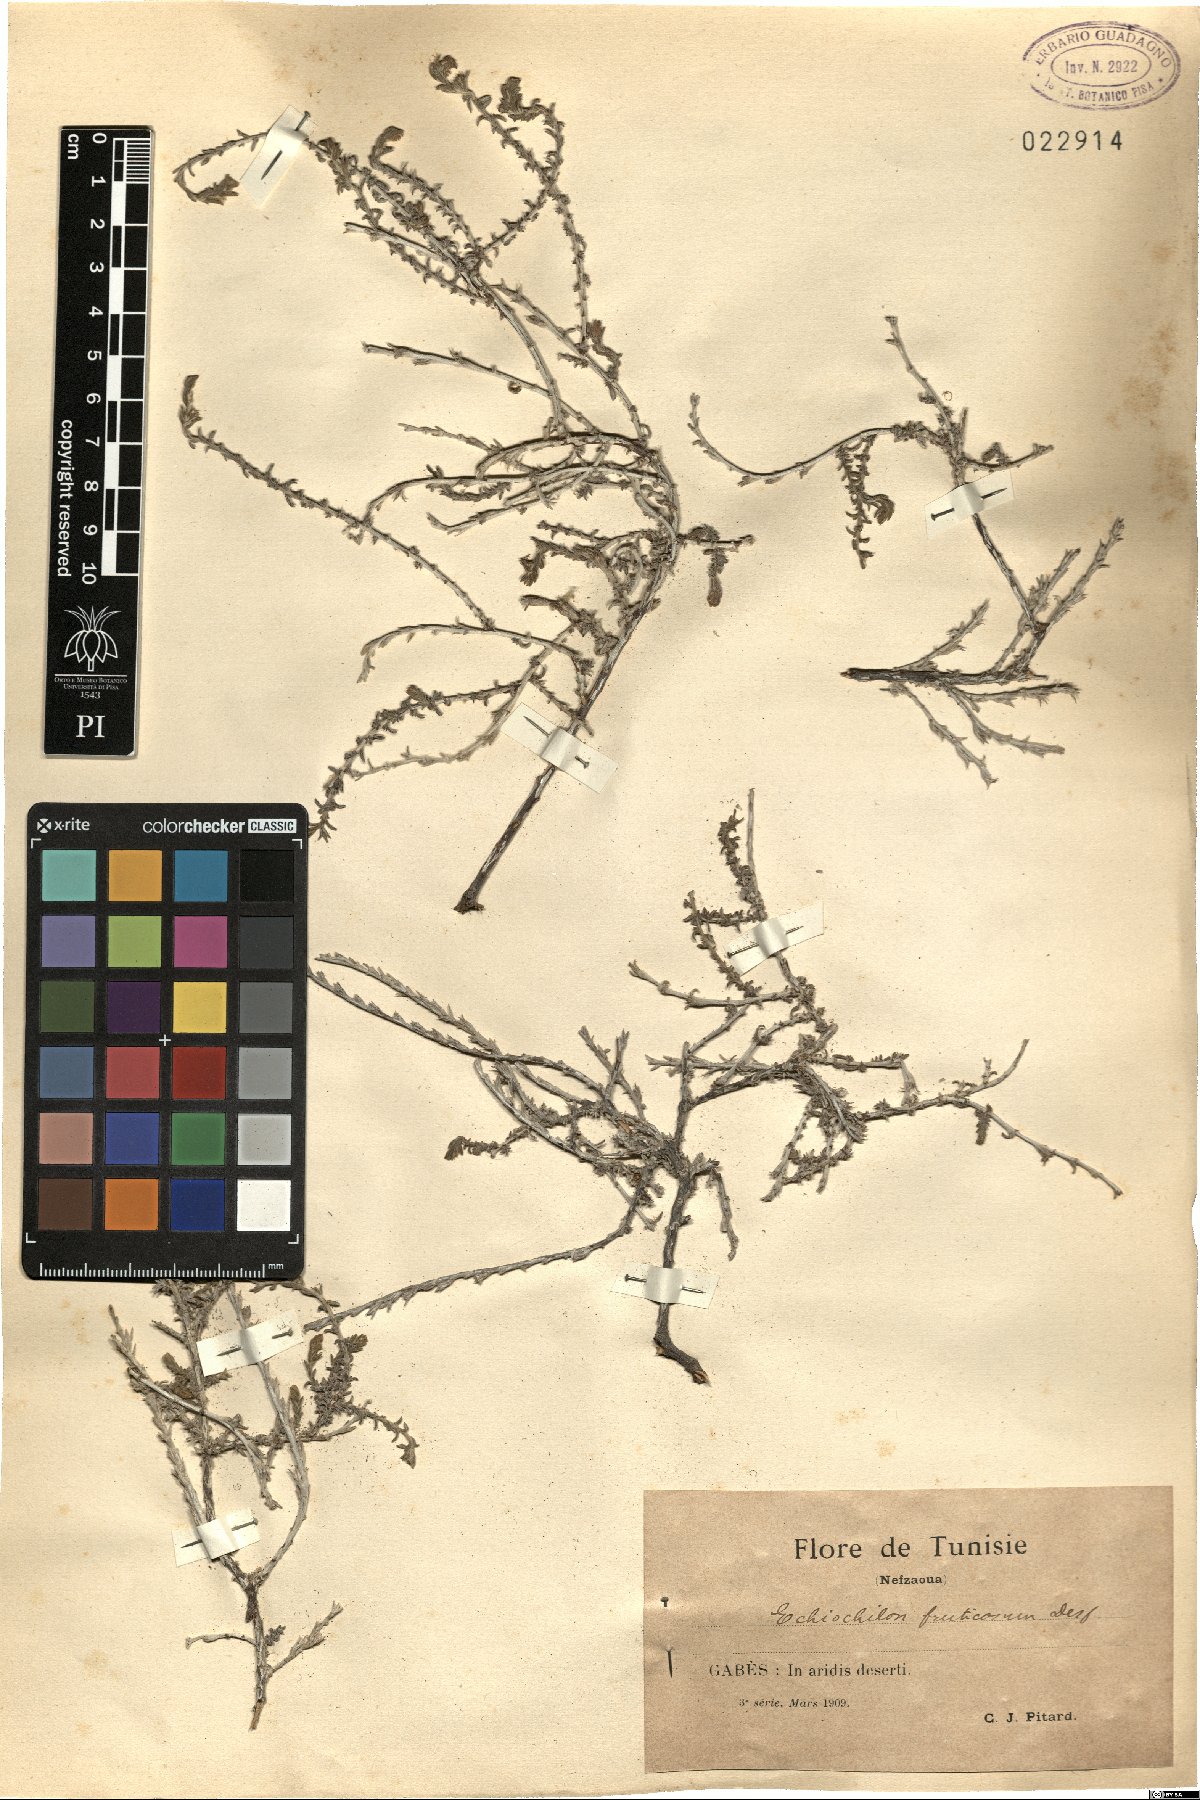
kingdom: Plantae
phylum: Tracheophyta
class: Magnoliopsida
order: Boraginales
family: Boraginaceae
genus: Echiochilon
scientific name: Echiochilon fruticosum
